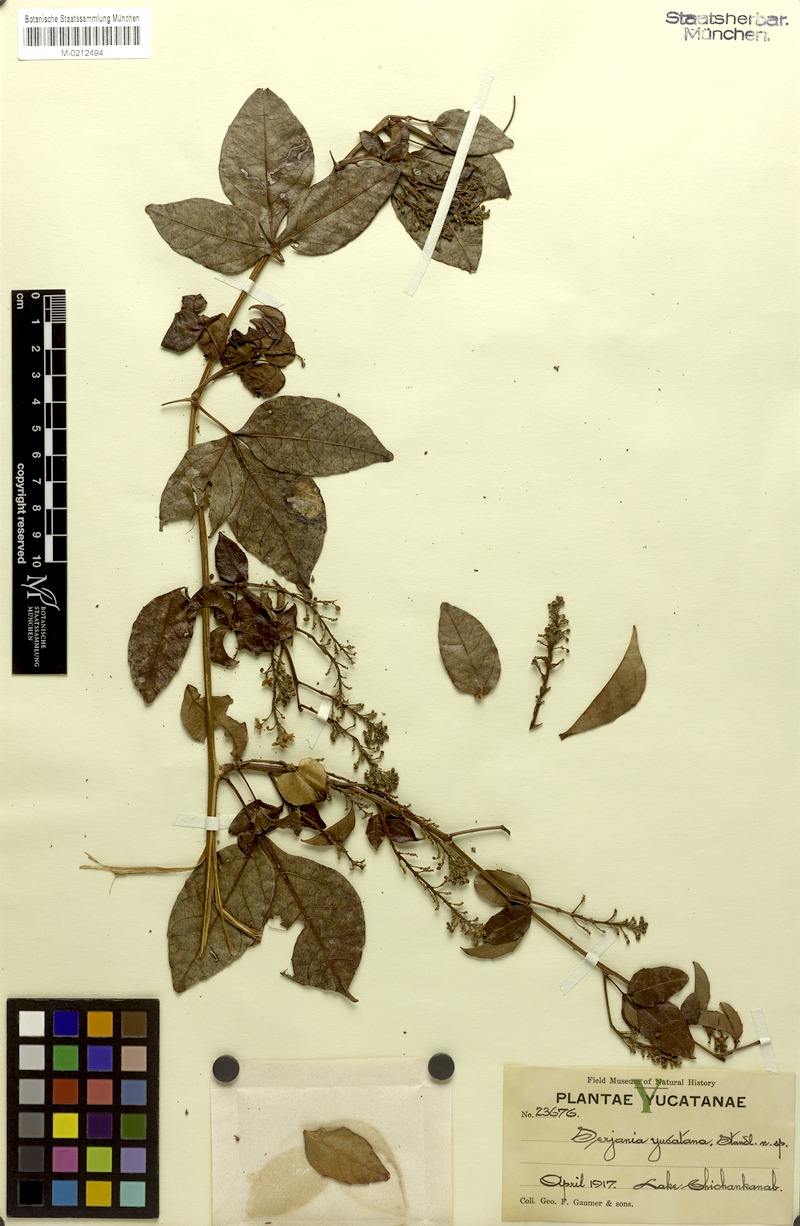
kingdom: Plantae
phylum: Tracheophyta
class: Magnoliopsida
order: Sapindales
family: Sapindaceae
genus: Serjania
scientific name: Serjania yucatanensis
